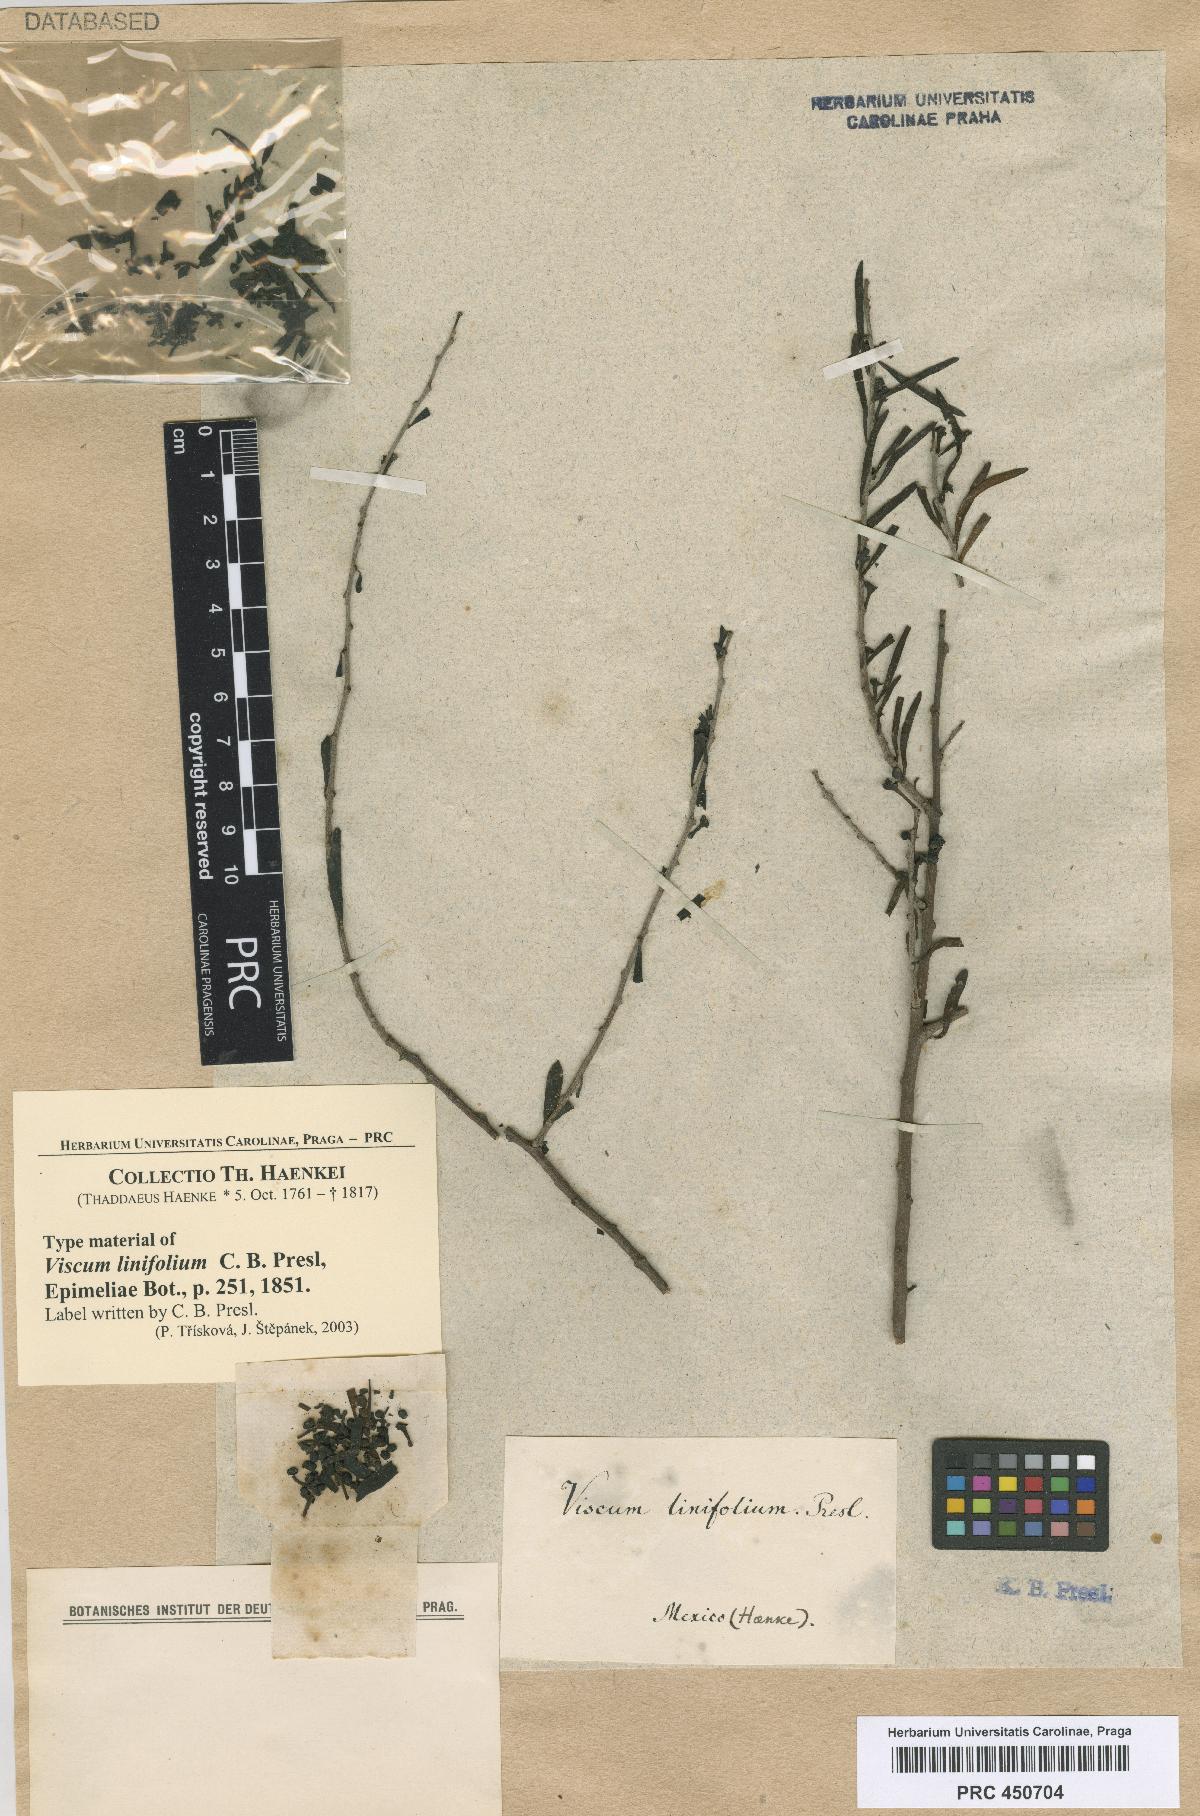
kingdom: Plantae
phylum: Tracheophyta
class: Magnoliopsida
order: Santalales
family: Viscaceae
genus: Phoradendron
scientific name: Phoradendron luisense
